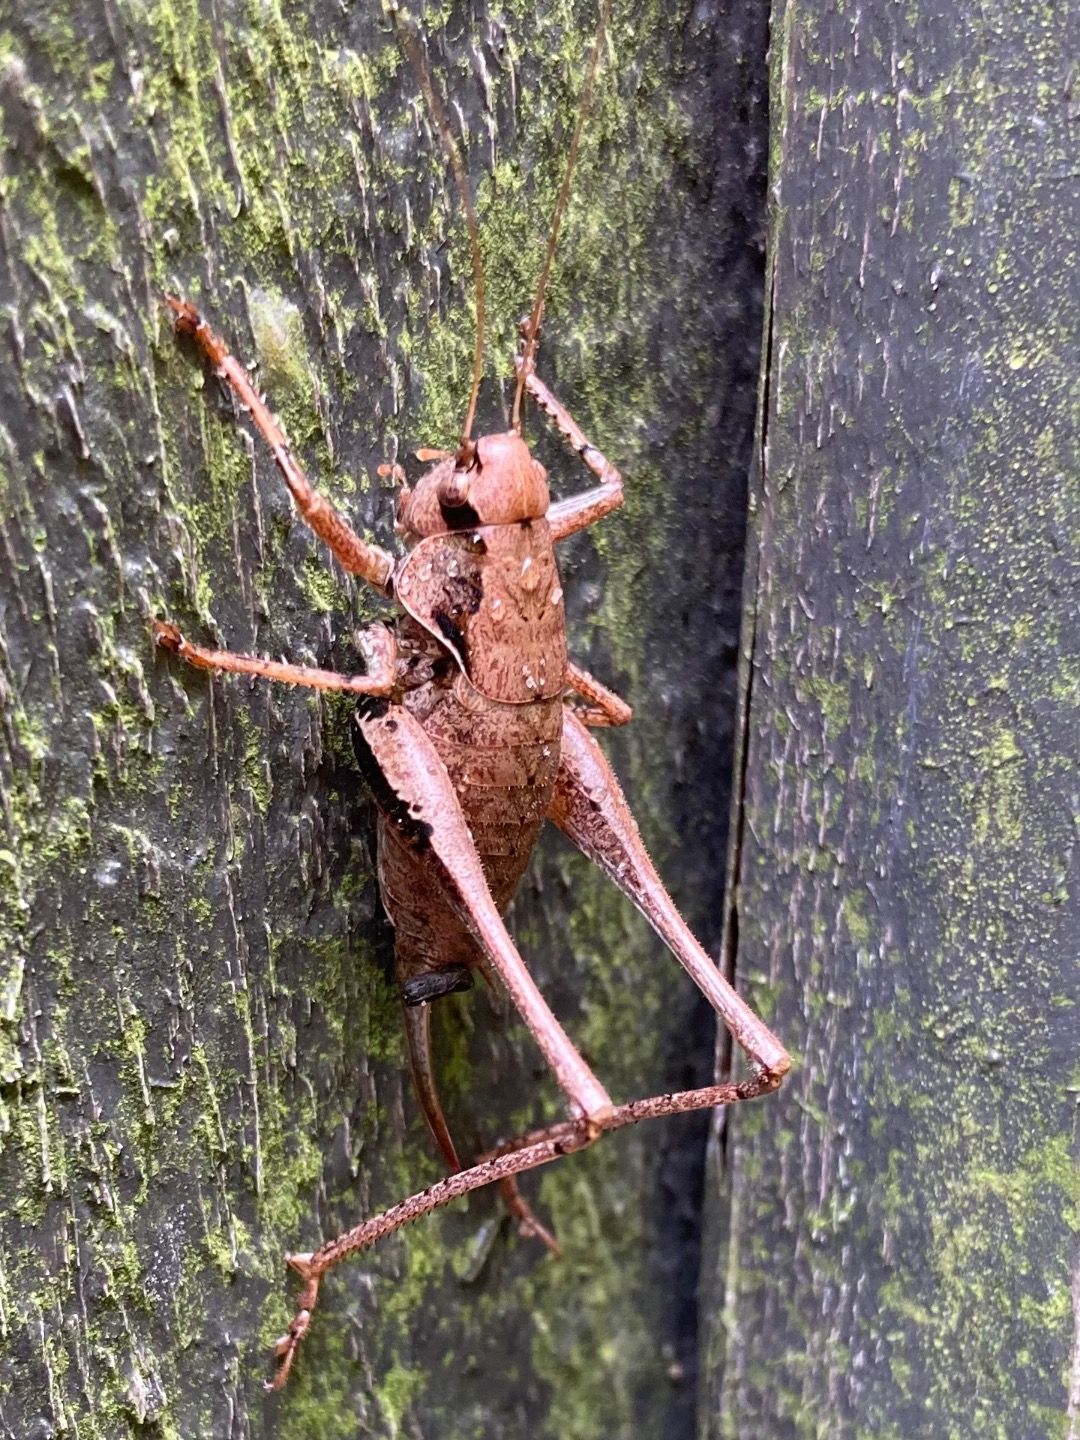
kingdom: Animalia
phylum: Arthropoda
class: Insecta
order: Orthoptera
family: Tettigoniidae
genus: Pholidoptera
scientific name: Pholidoptera griseoaptera
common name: Buskgræshoppe
